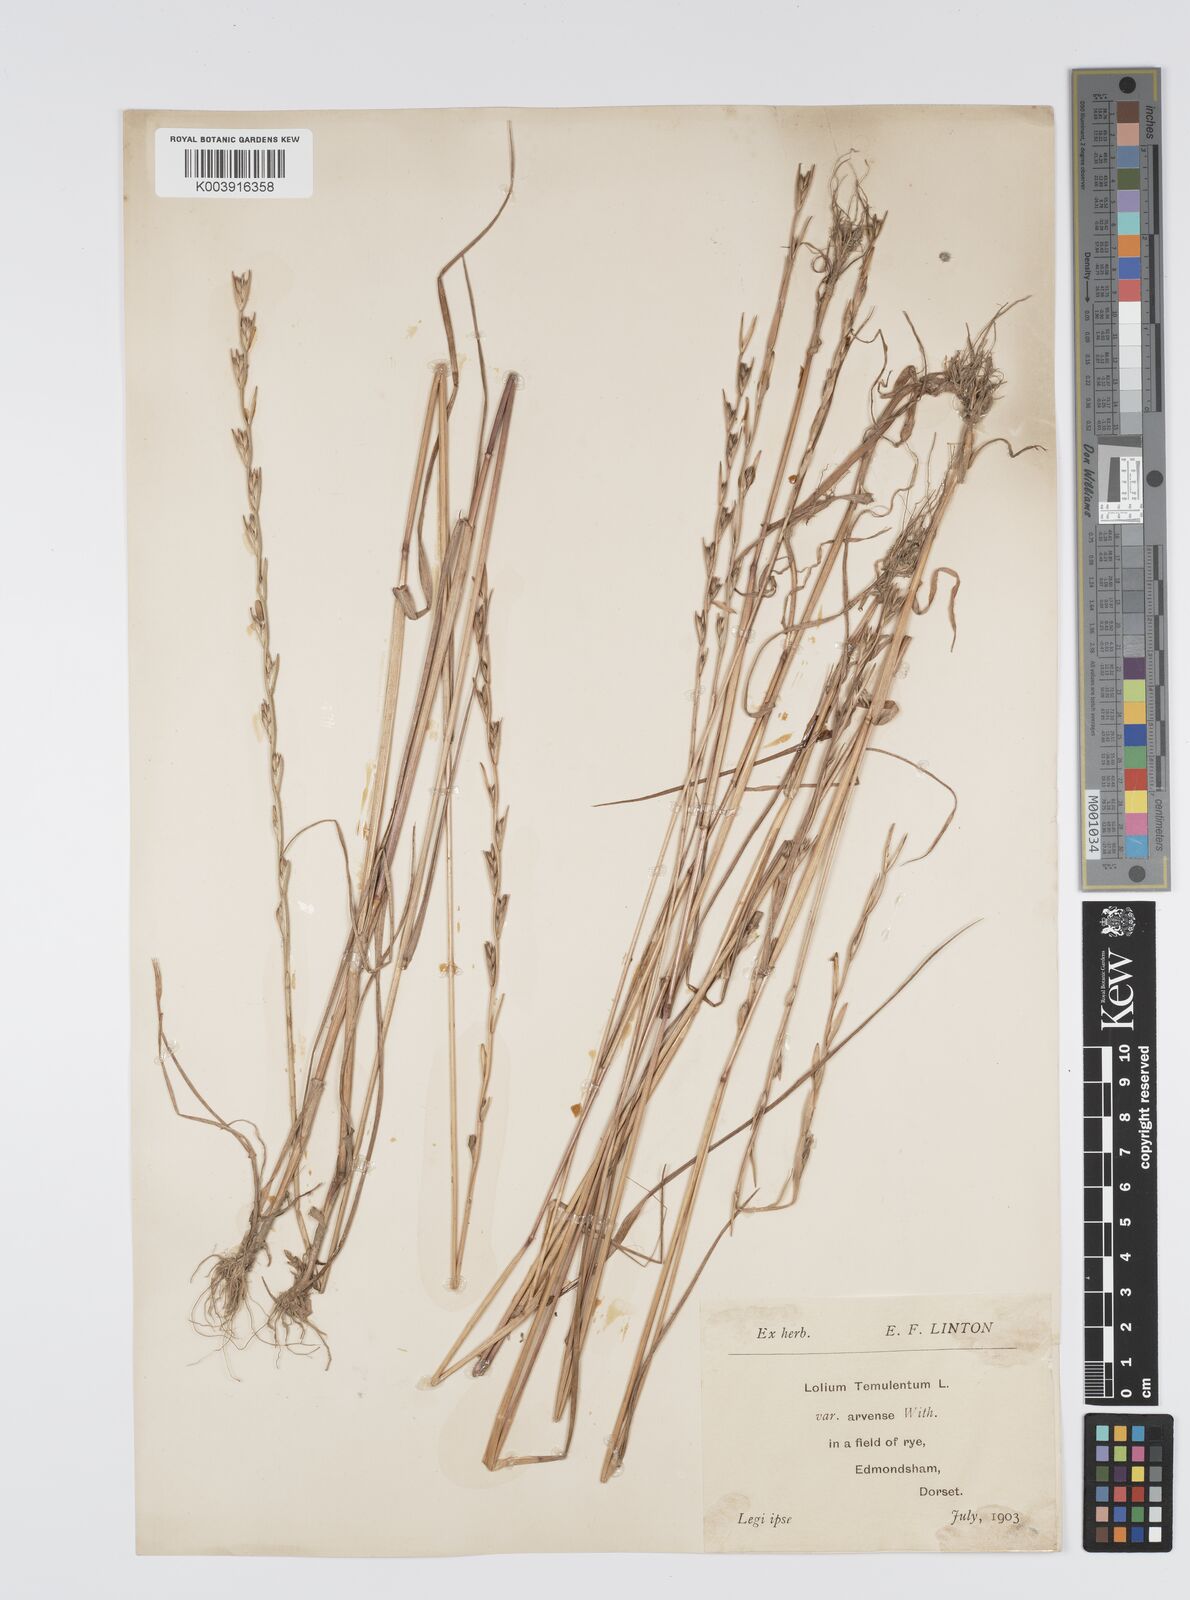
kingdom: Plantae
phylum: Tracheophyta
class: Liliopsida
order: Poales
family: Poaceae
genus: Lolium
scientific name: Lolium temulentum
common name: Darnel
